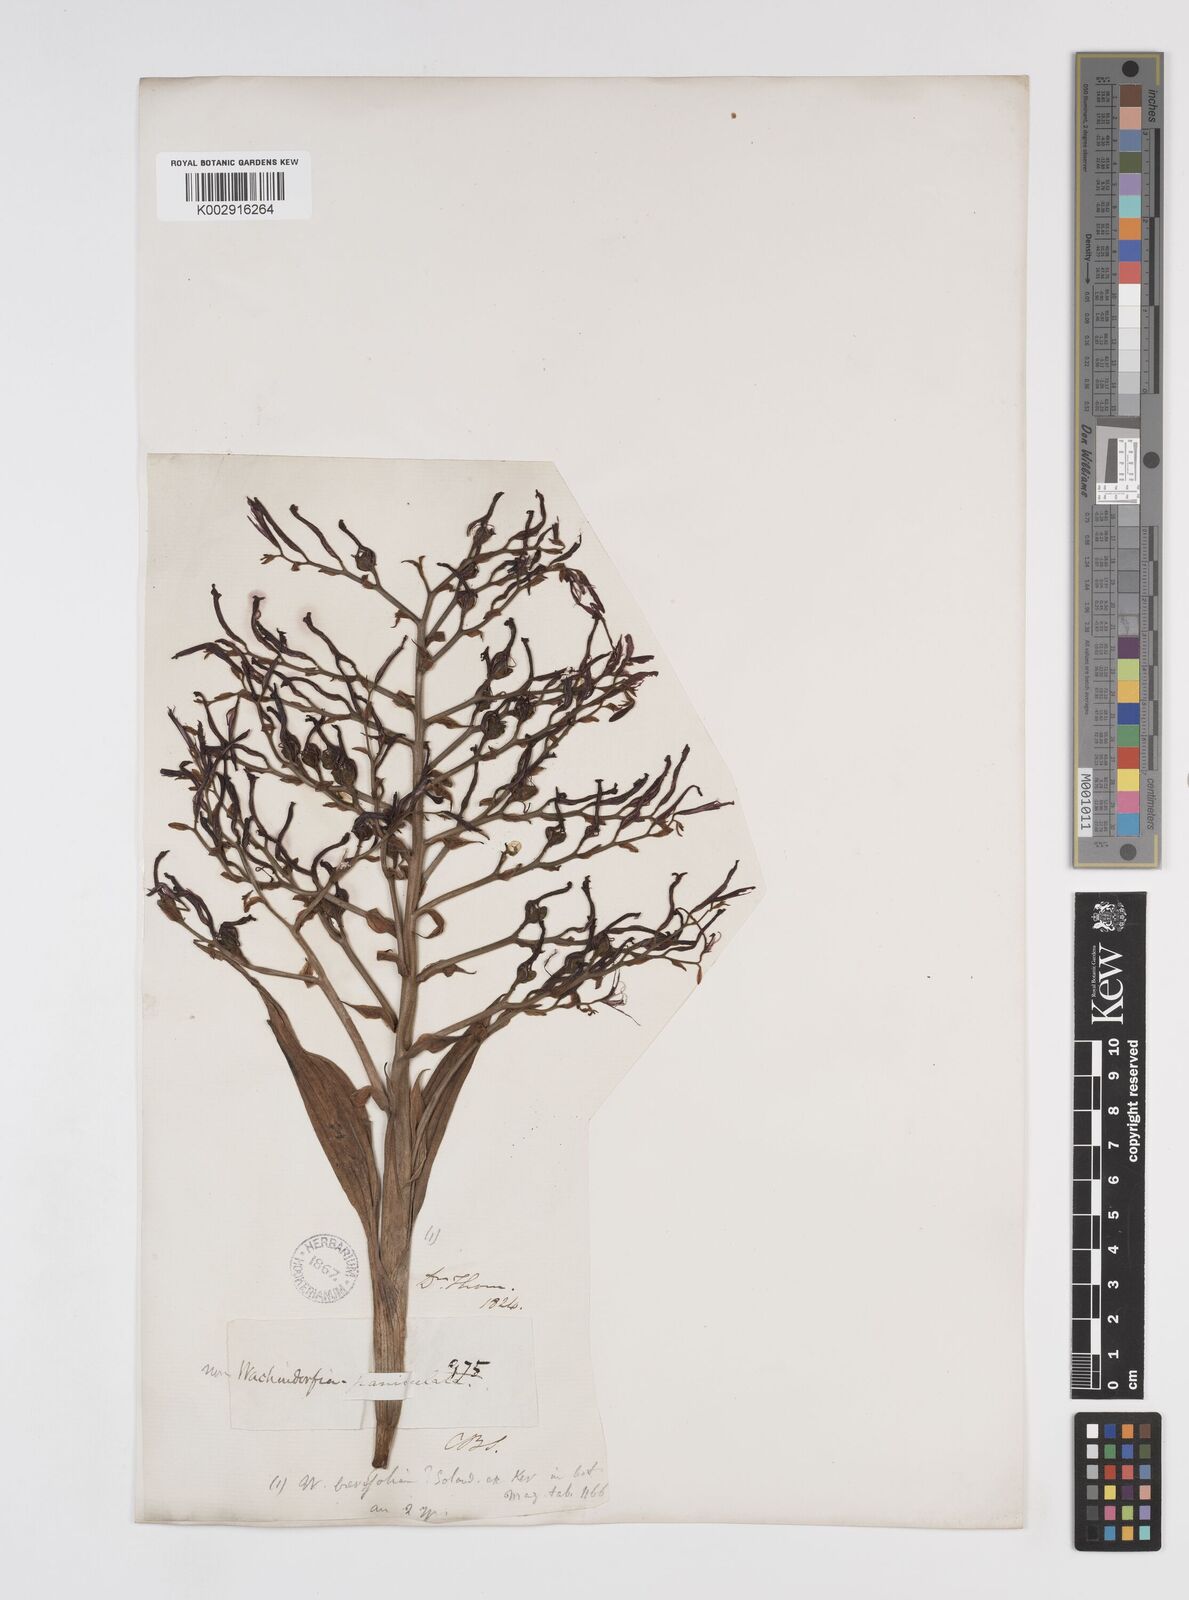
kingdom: Plantae
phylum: Tracheophyta
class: Liliopsida
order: Commelinales
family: Haemodoraceae
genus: Wachendorfia
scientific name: Wachendorfia paniculata
